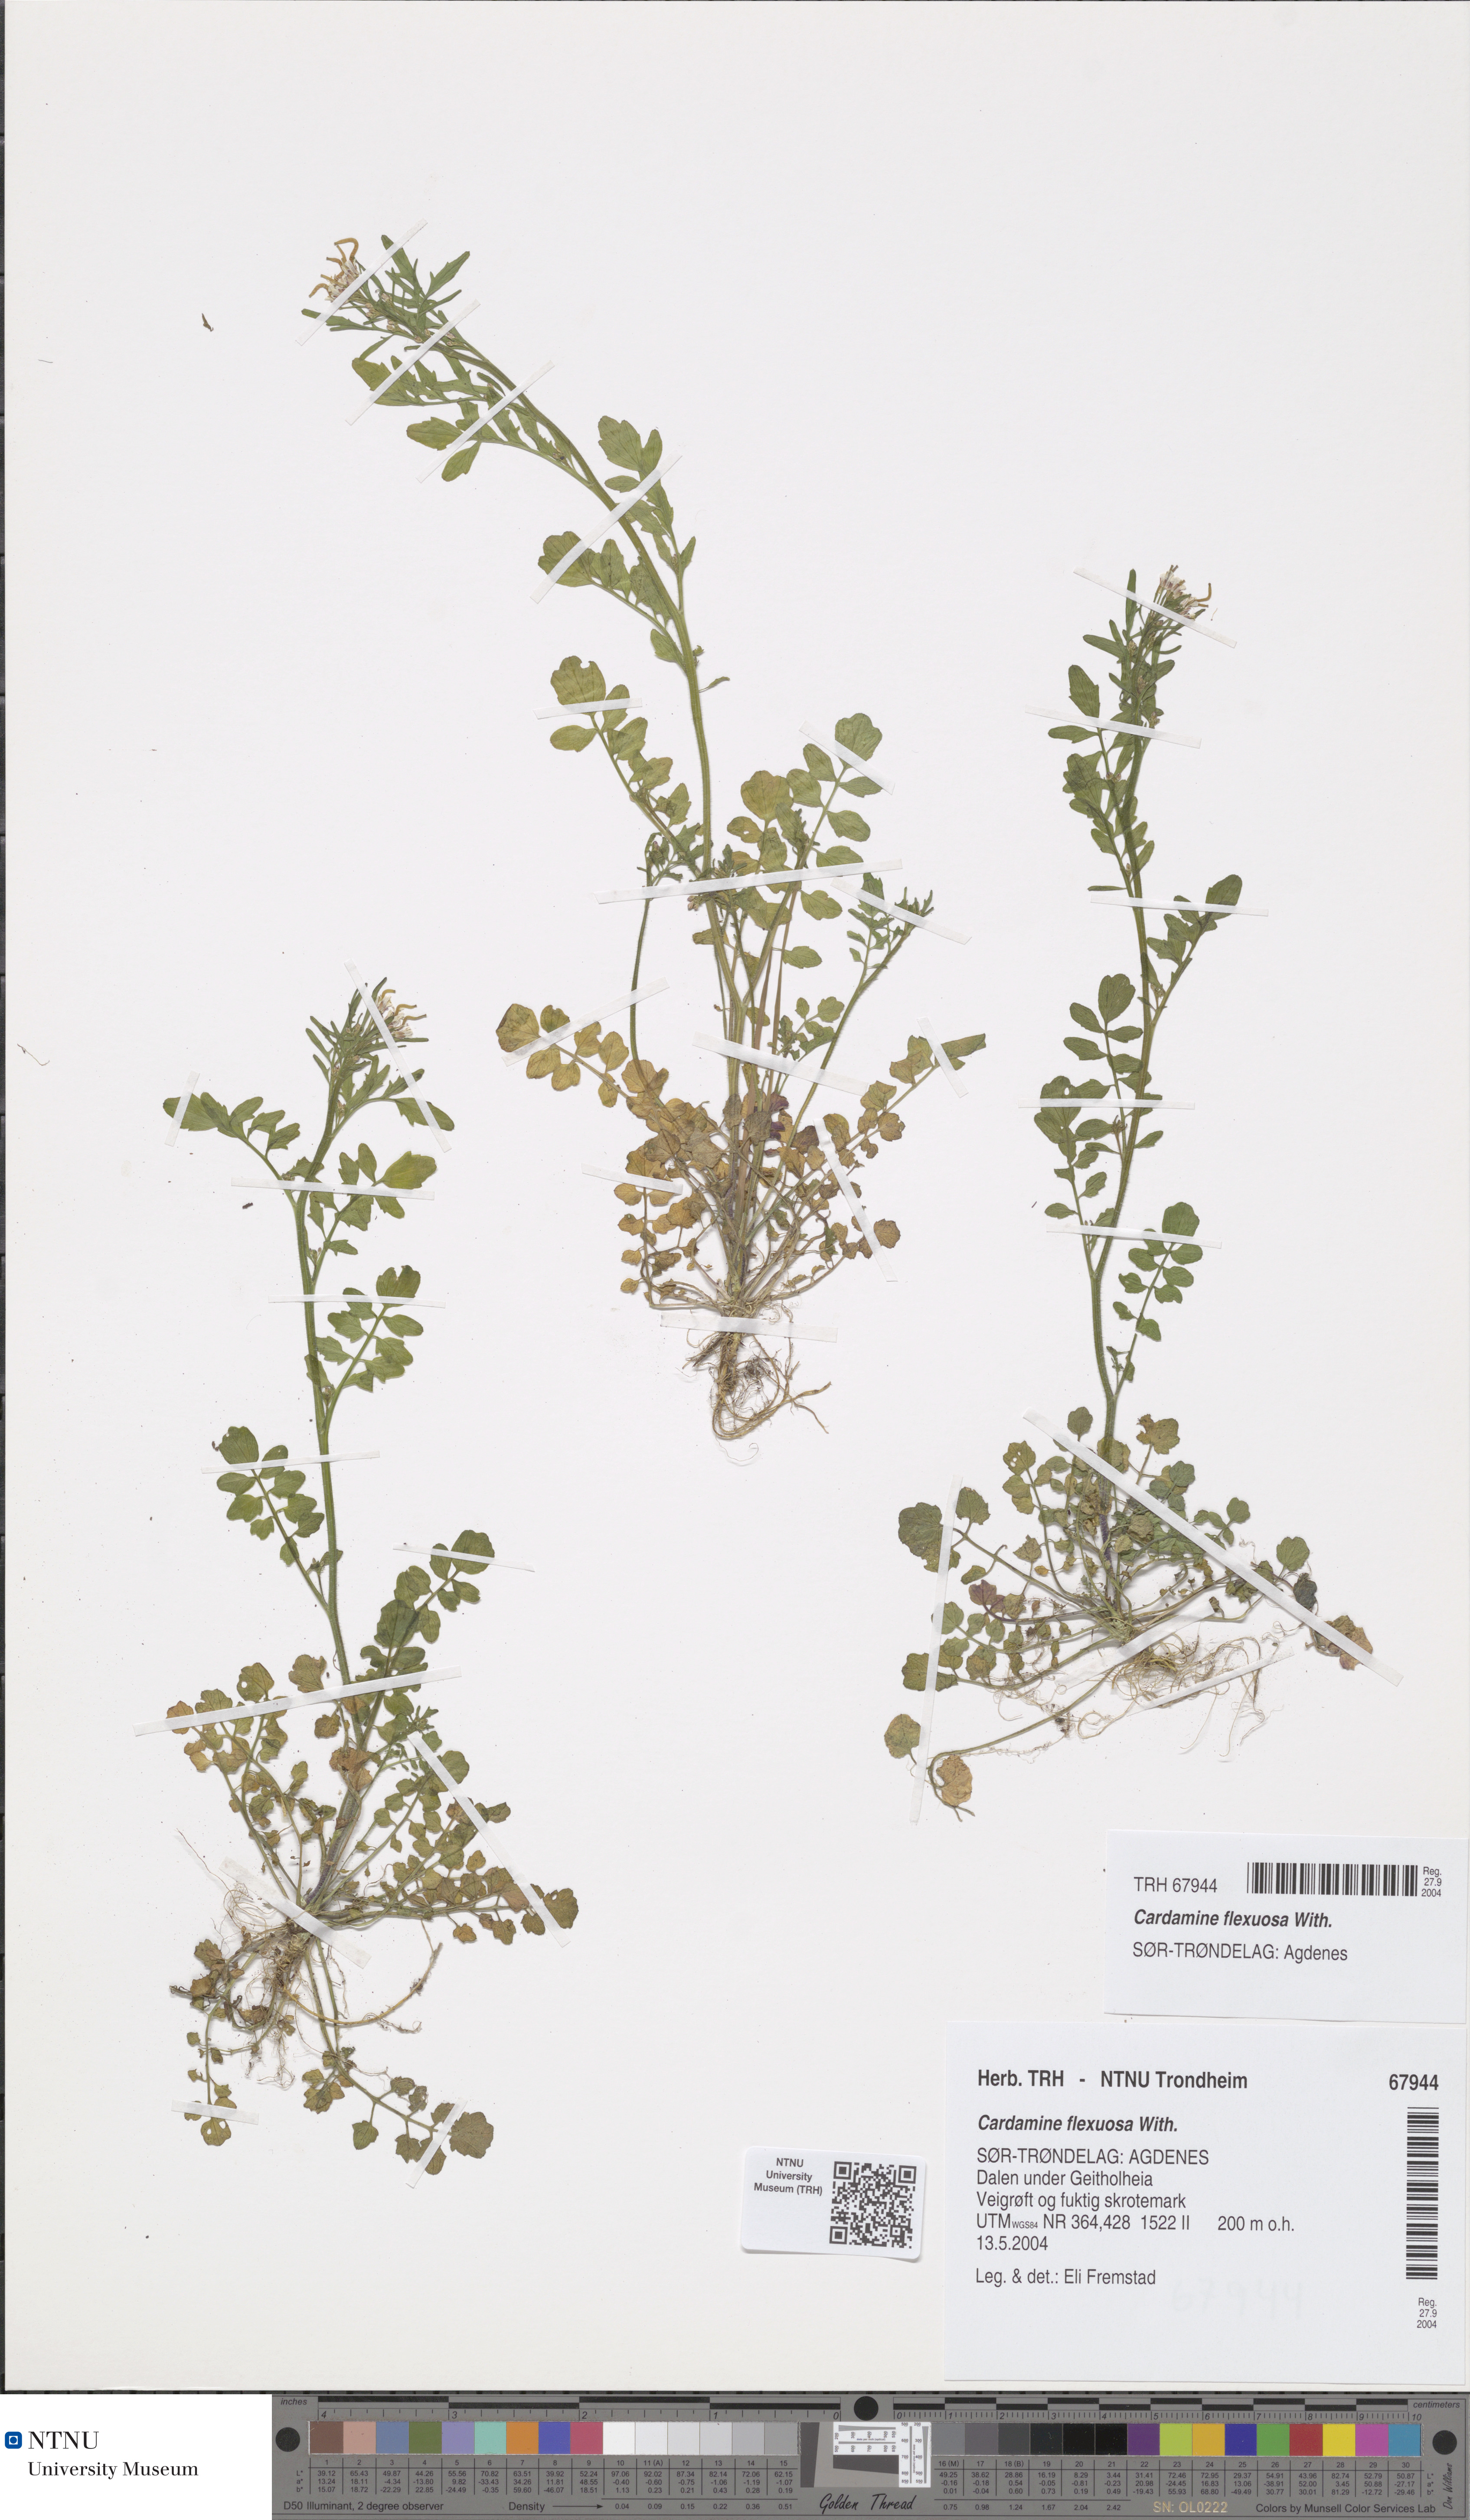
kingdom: Plantae
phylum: Tracheophyta
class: Magnoliopsida
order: Brassicales
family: Brassicaceae
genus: Cardamine
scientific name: Cardamine flexuosa
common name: Woodland bittercress
